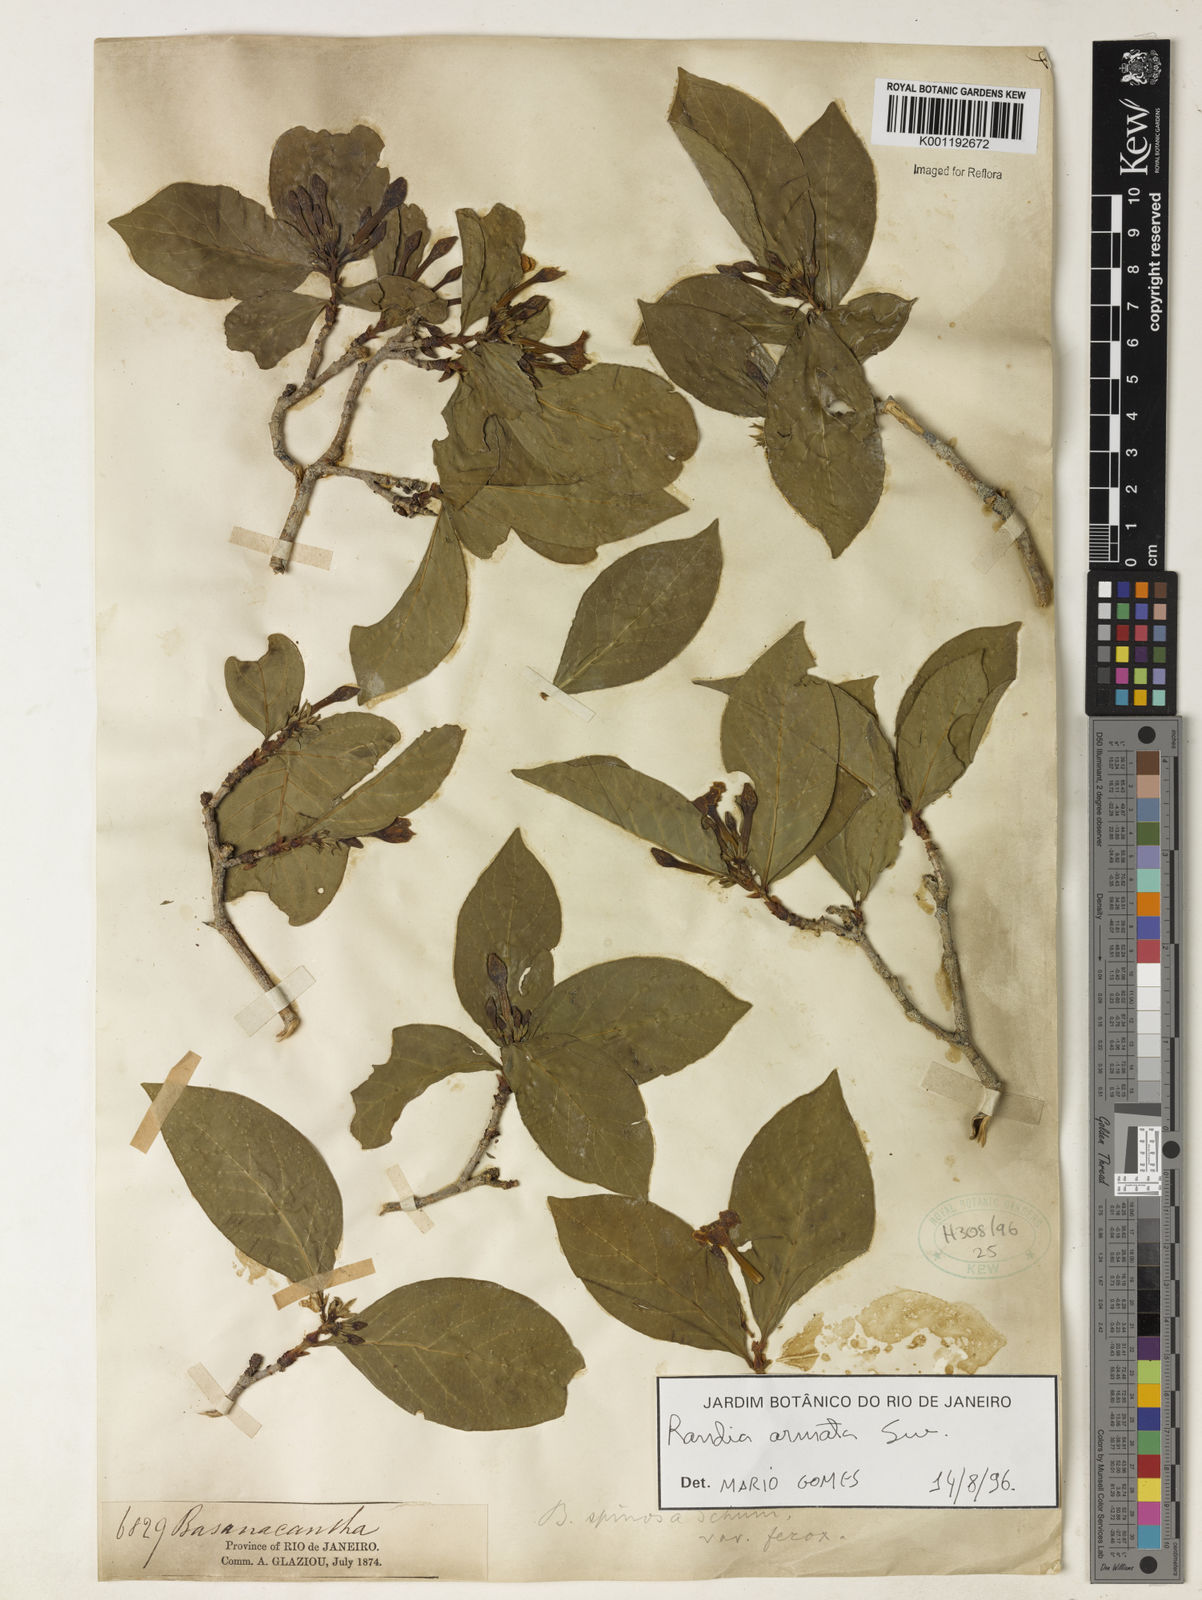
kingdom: Plantae
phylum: Tracheophyta
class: Magnoliopsida
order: Gentianales
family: Rubiaceae
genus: Randia
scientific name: Randia armata
